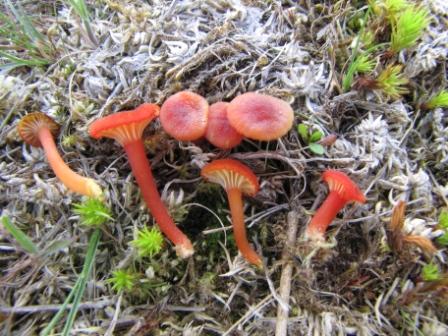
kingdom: Fungi
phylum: Basidiomycota
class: Agaricomycetes
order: Agaricales
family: Hygrophoraceae
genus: Hygrocybe
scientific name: Hygrocybe coccineocrenata
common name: tørvemos-vokshat
